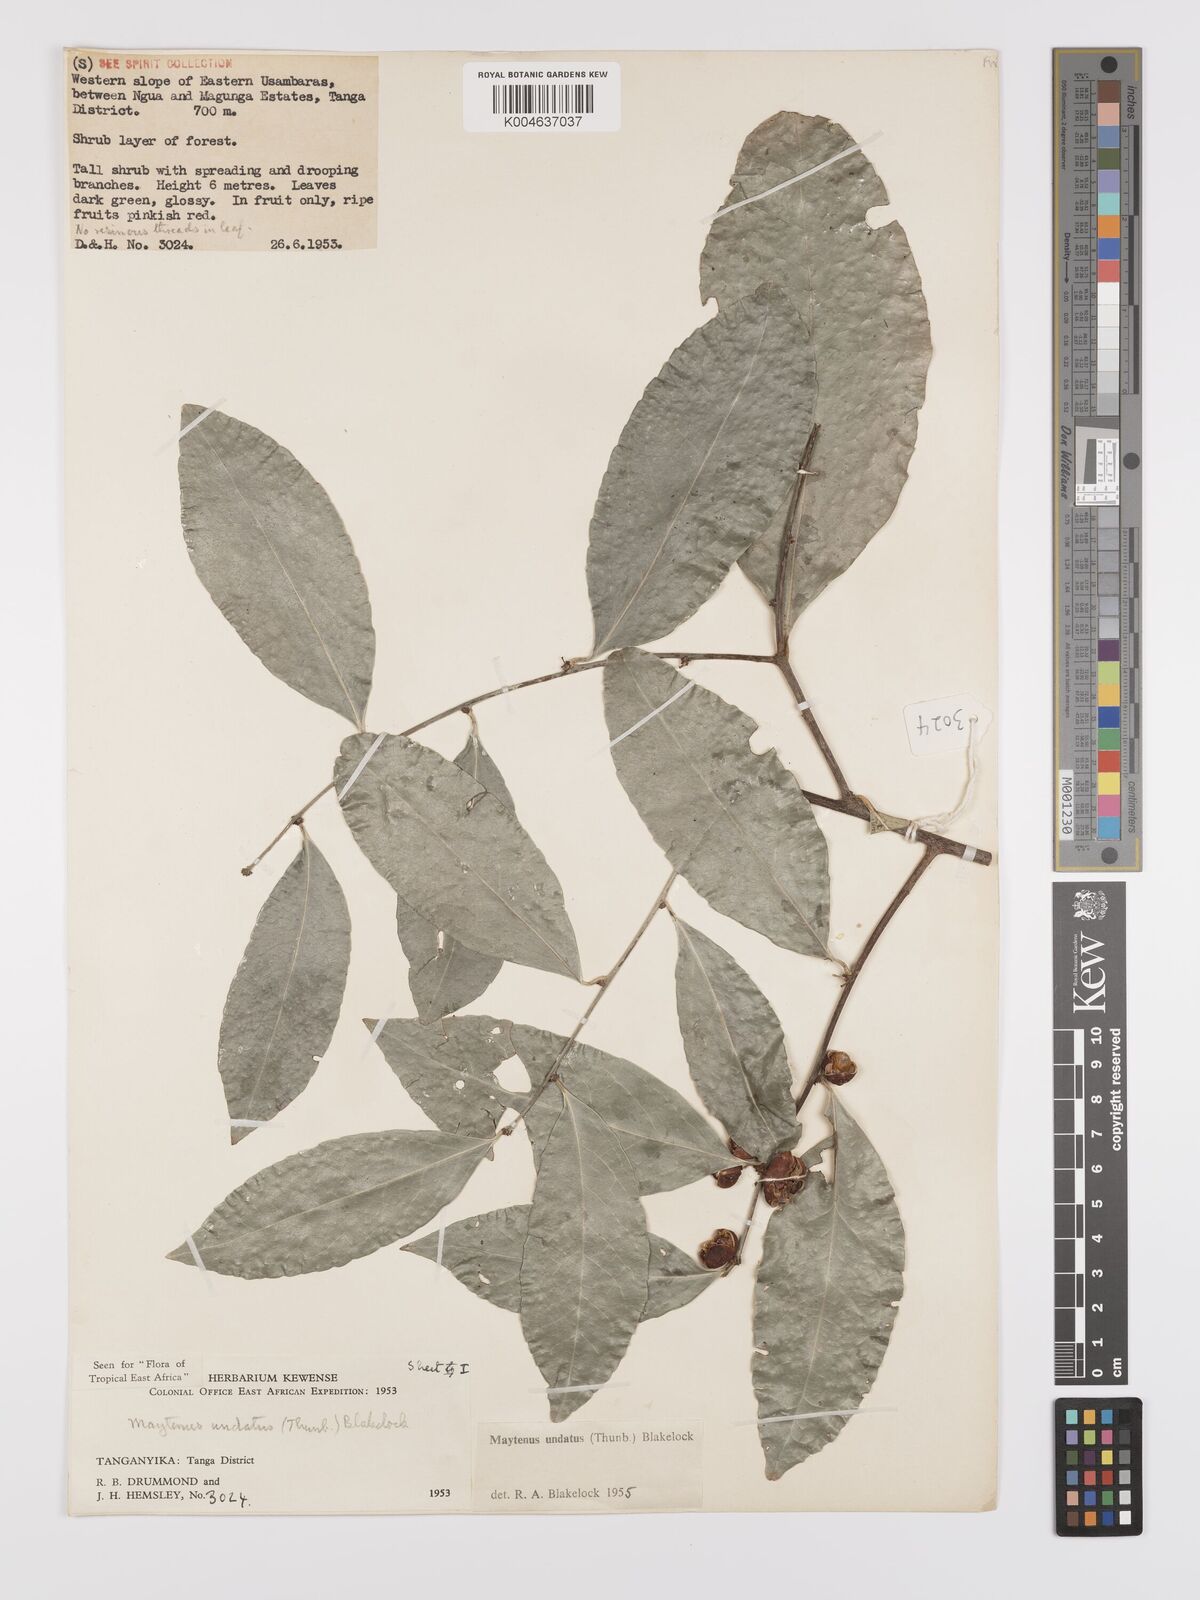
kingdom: Plantae
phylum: Tracheophyta
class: Magnoliopsida
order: Celastrales
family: Celastraceae
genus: Gymnosporia
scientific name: Gymnosporia undata
